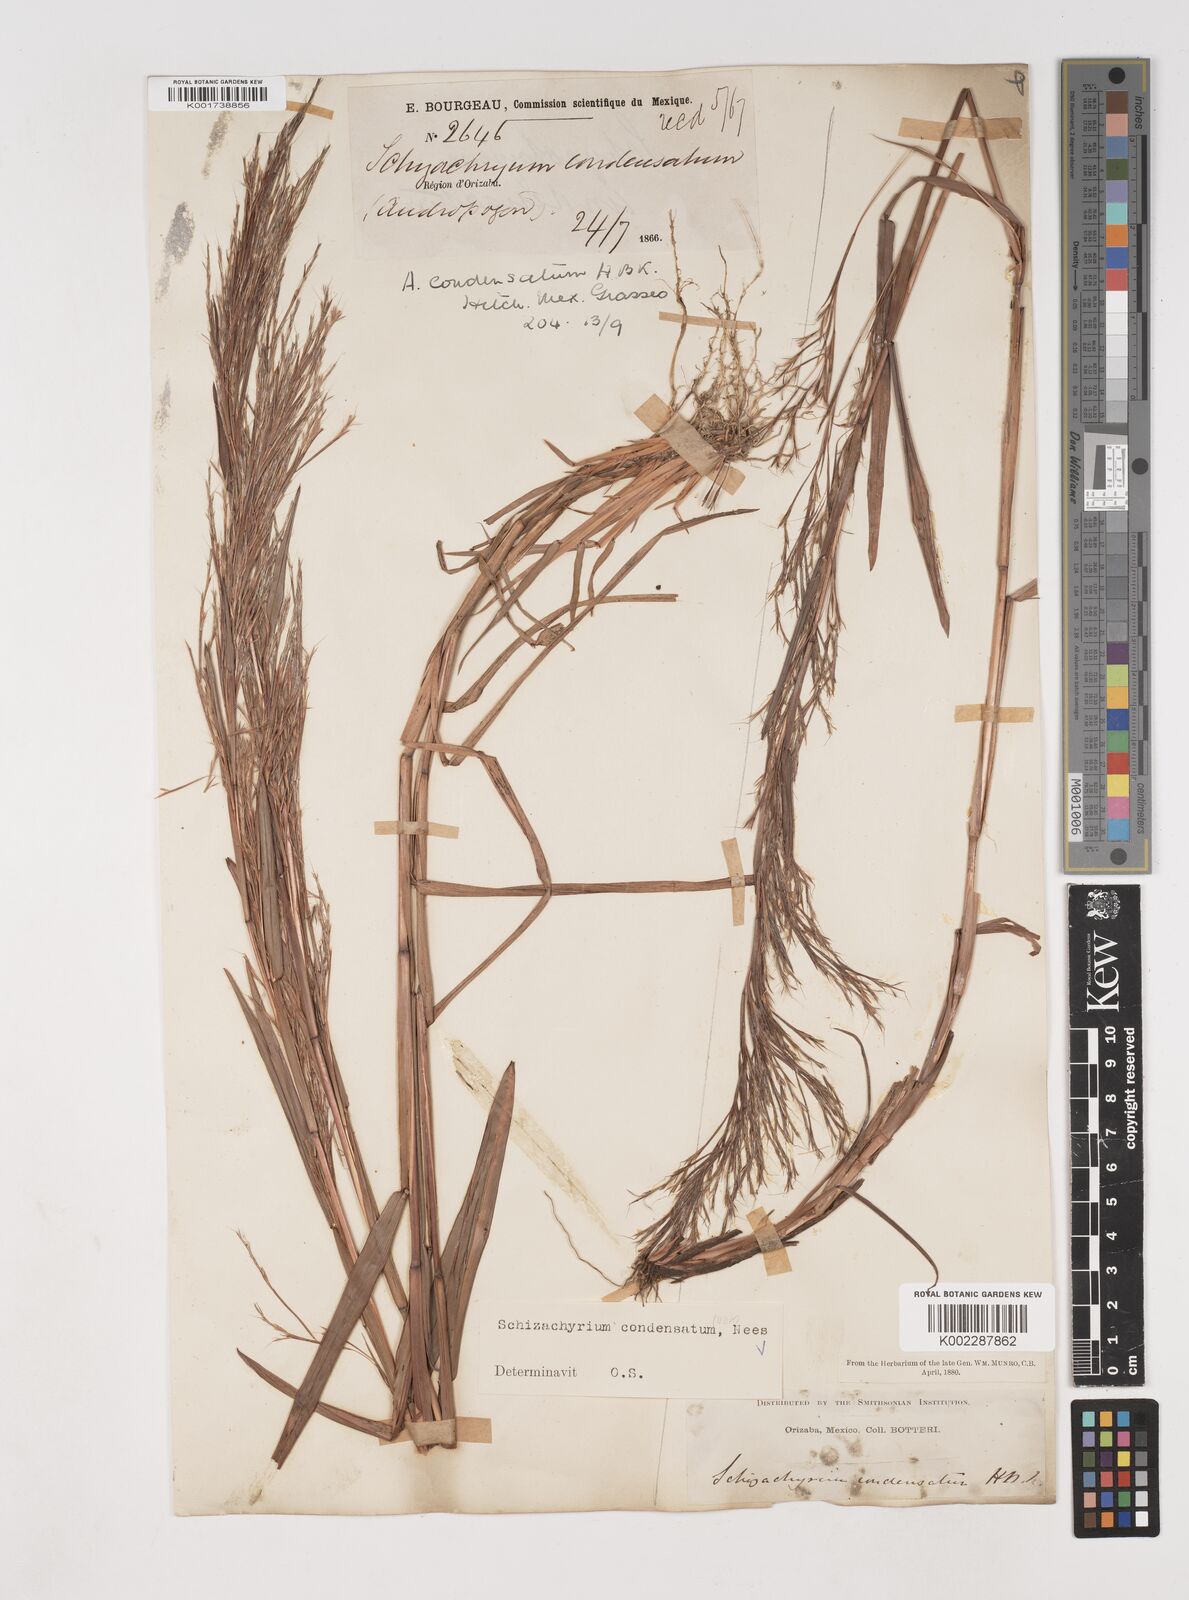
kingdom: Plantae
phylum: Tracheophyta
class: Liliopsida
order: Poales
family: Poaceae
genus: Schizachyrium
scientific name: Schizachyrium condensatum
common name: Bush beardgrass
